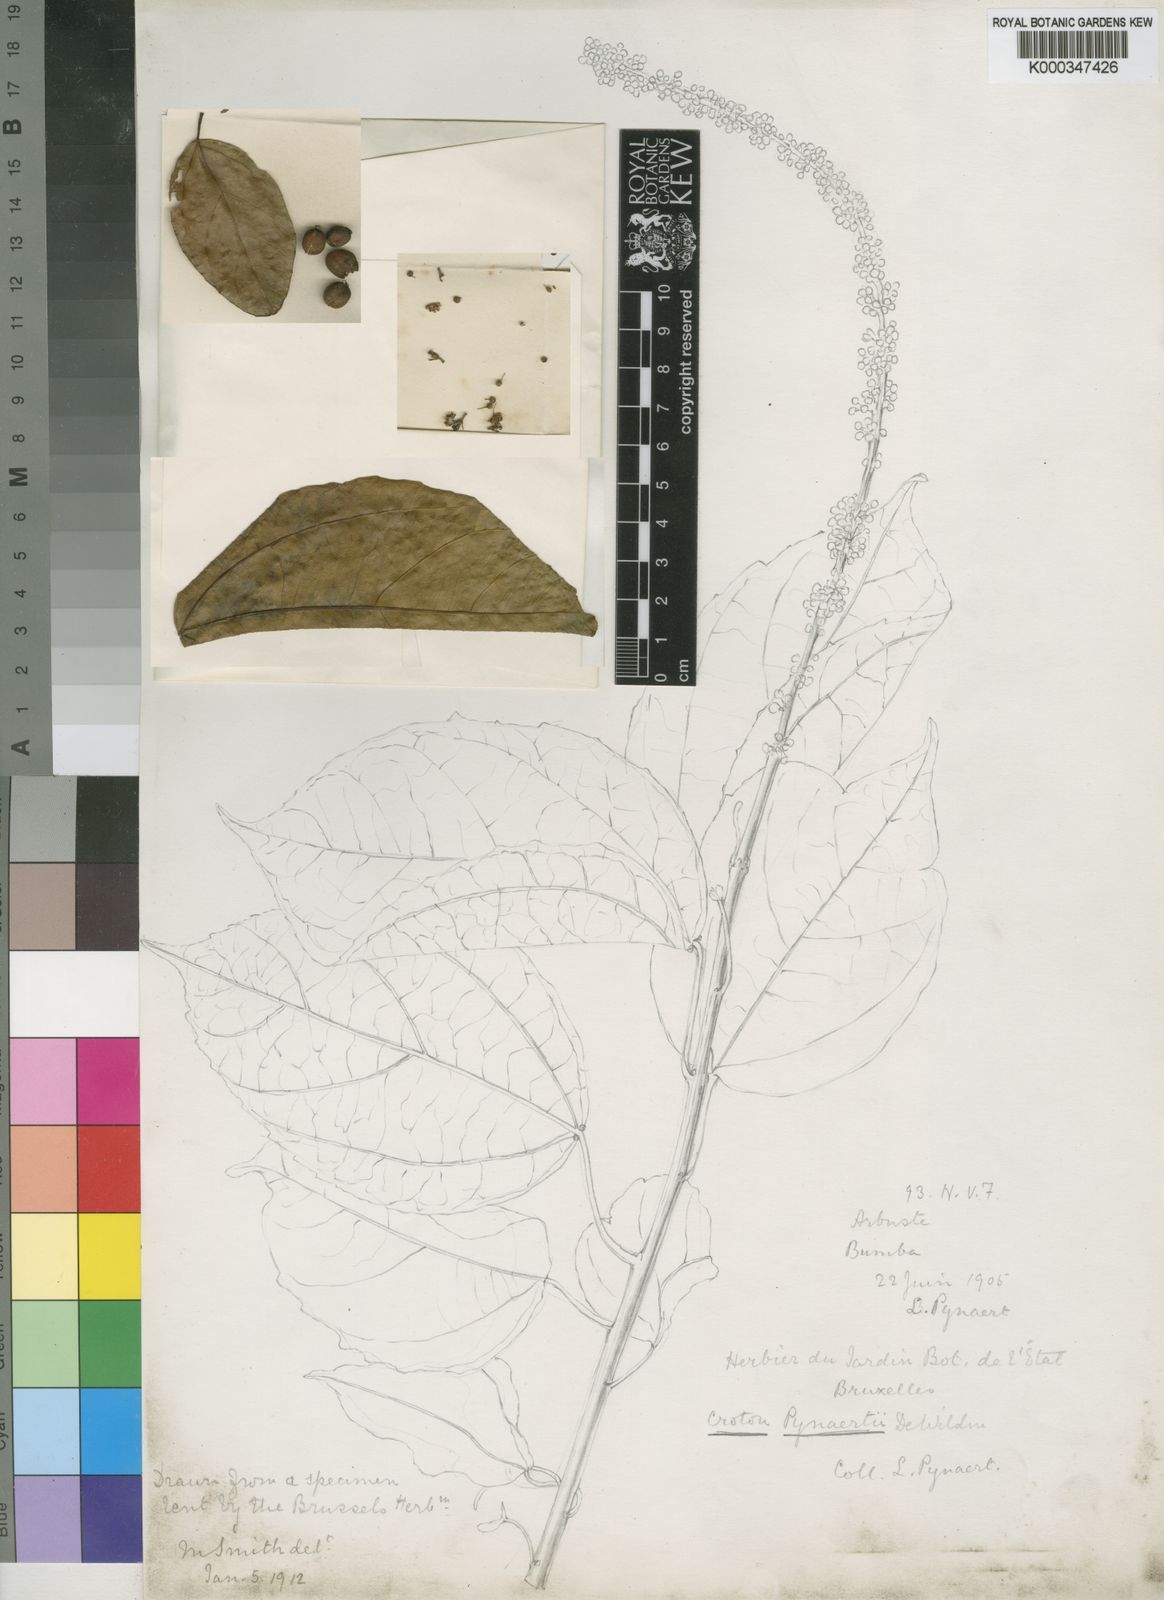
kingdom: Plantae
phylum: Tracheophyta
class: Magnoliopsida
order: Malpighiales
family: Euphorbiaceae
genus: Croton
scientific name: Croton pynaertii
